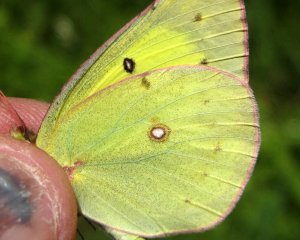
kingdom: Animalia
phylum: Arthropoda
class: Insecta
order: Lepidoptera
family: Pieridae
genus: Colias
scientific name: Colias philodice
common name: Clouded Sulphur
